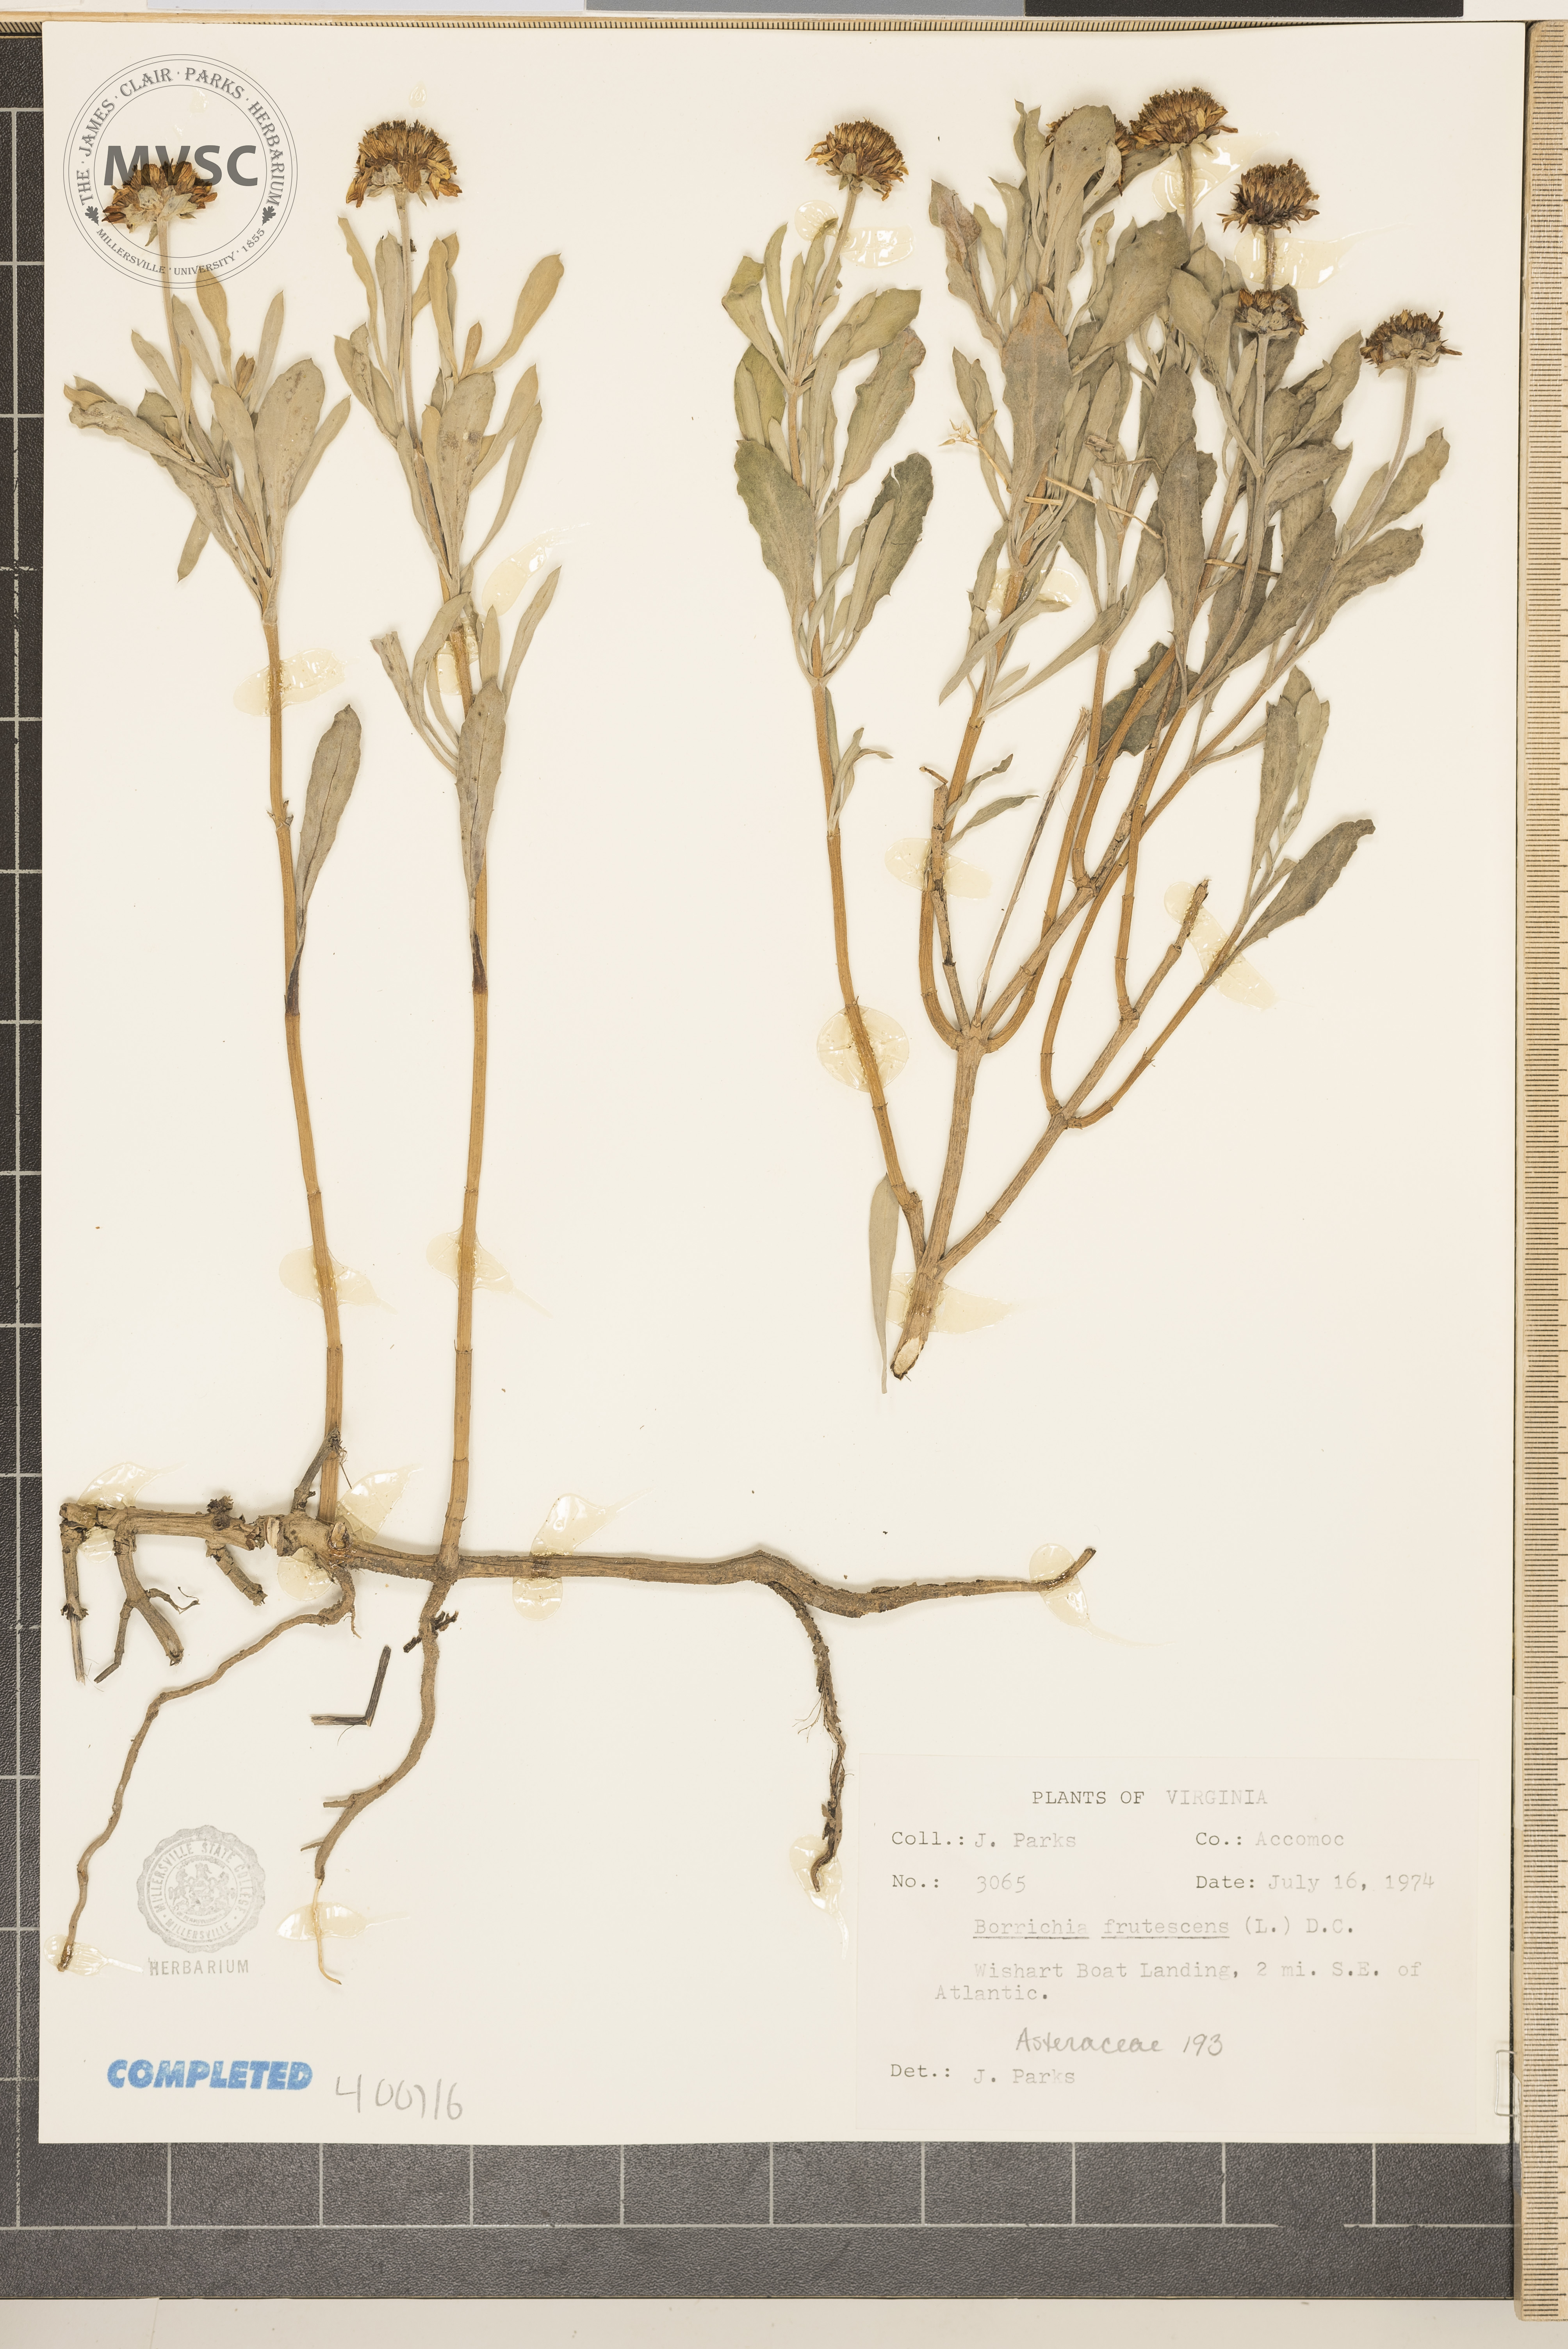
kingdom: Plantae
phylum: Tracheophyta
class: Magnoliopsida
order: Asterales
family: Asteraceae
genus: Borrichia
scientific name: Borrichia frutescens
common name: Sea oxeye
